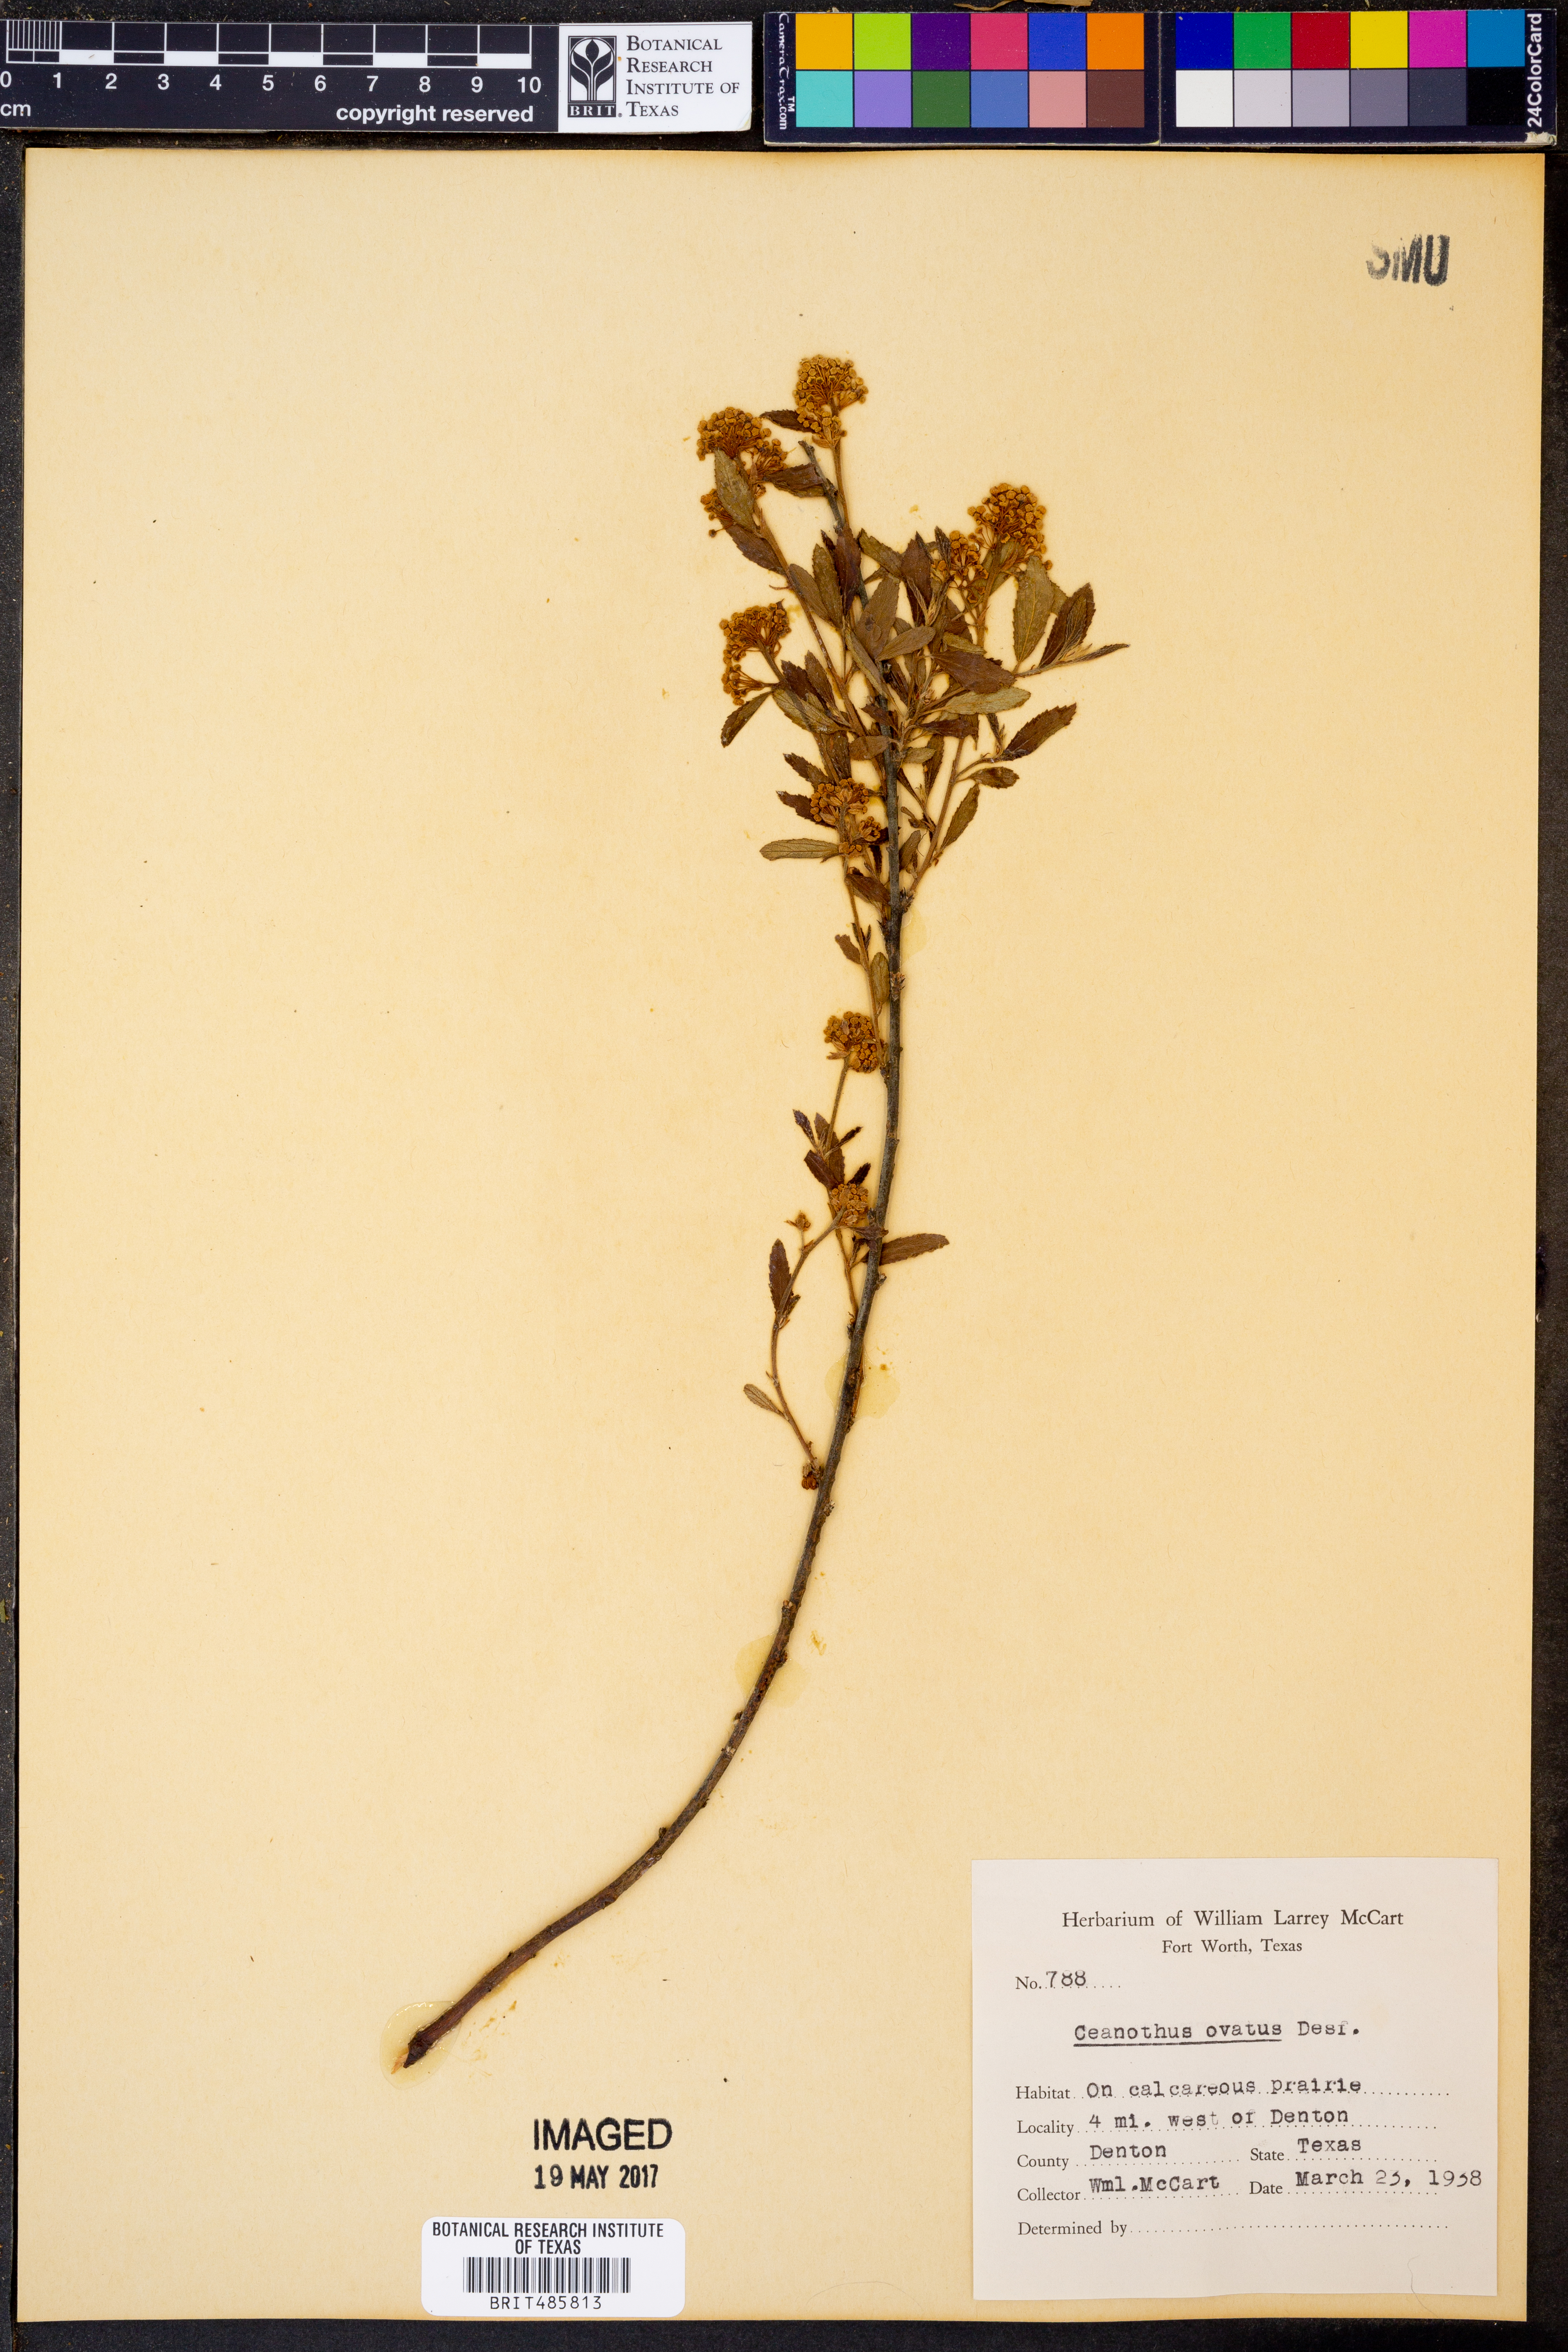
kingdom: Plantae
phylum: Tracheophyta
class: Magnoliopsida
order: Rosales
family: Rhamnaceae
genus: Ceanothus
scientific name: Ceanothus herbaceus
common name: Inland ceanothus
